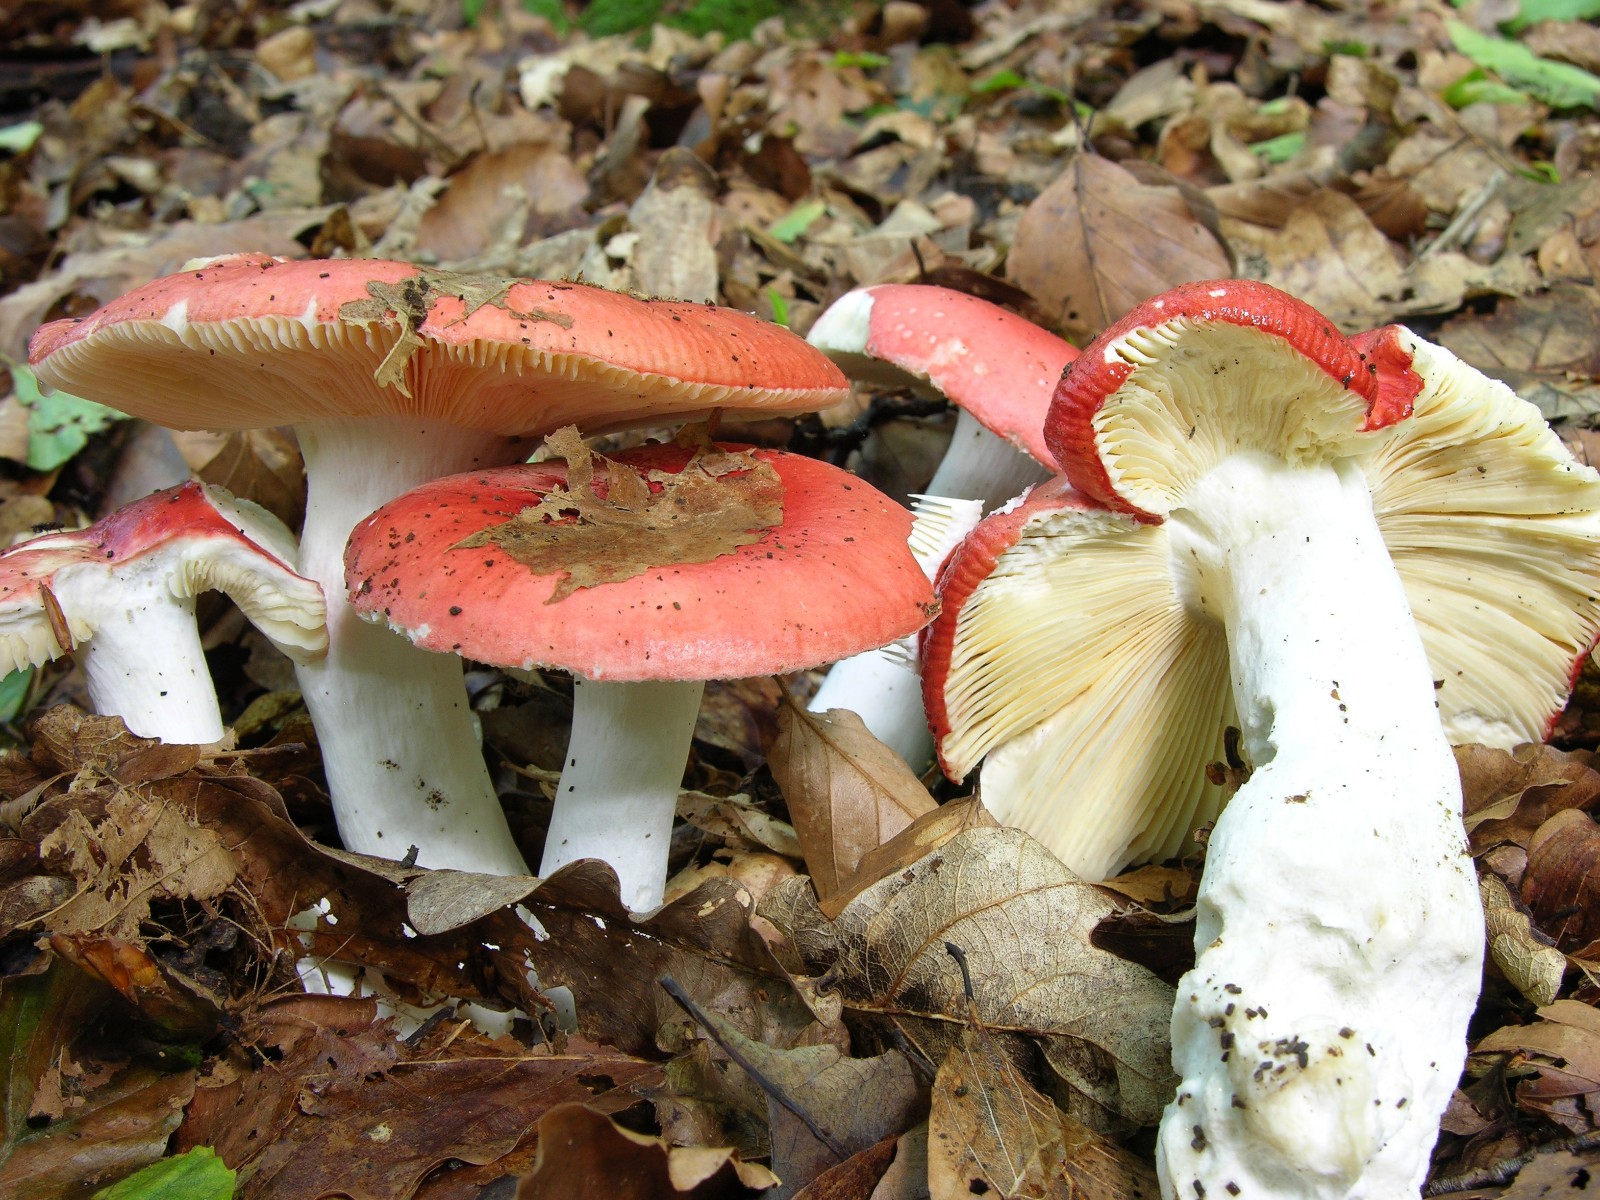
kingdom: Fungi
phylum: Basidiomycota
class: Agaricomycetes
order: Russulales
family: Russulaceae
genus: Russula
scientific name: Russula pseudointegra
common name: cinnoberrød skørhat
